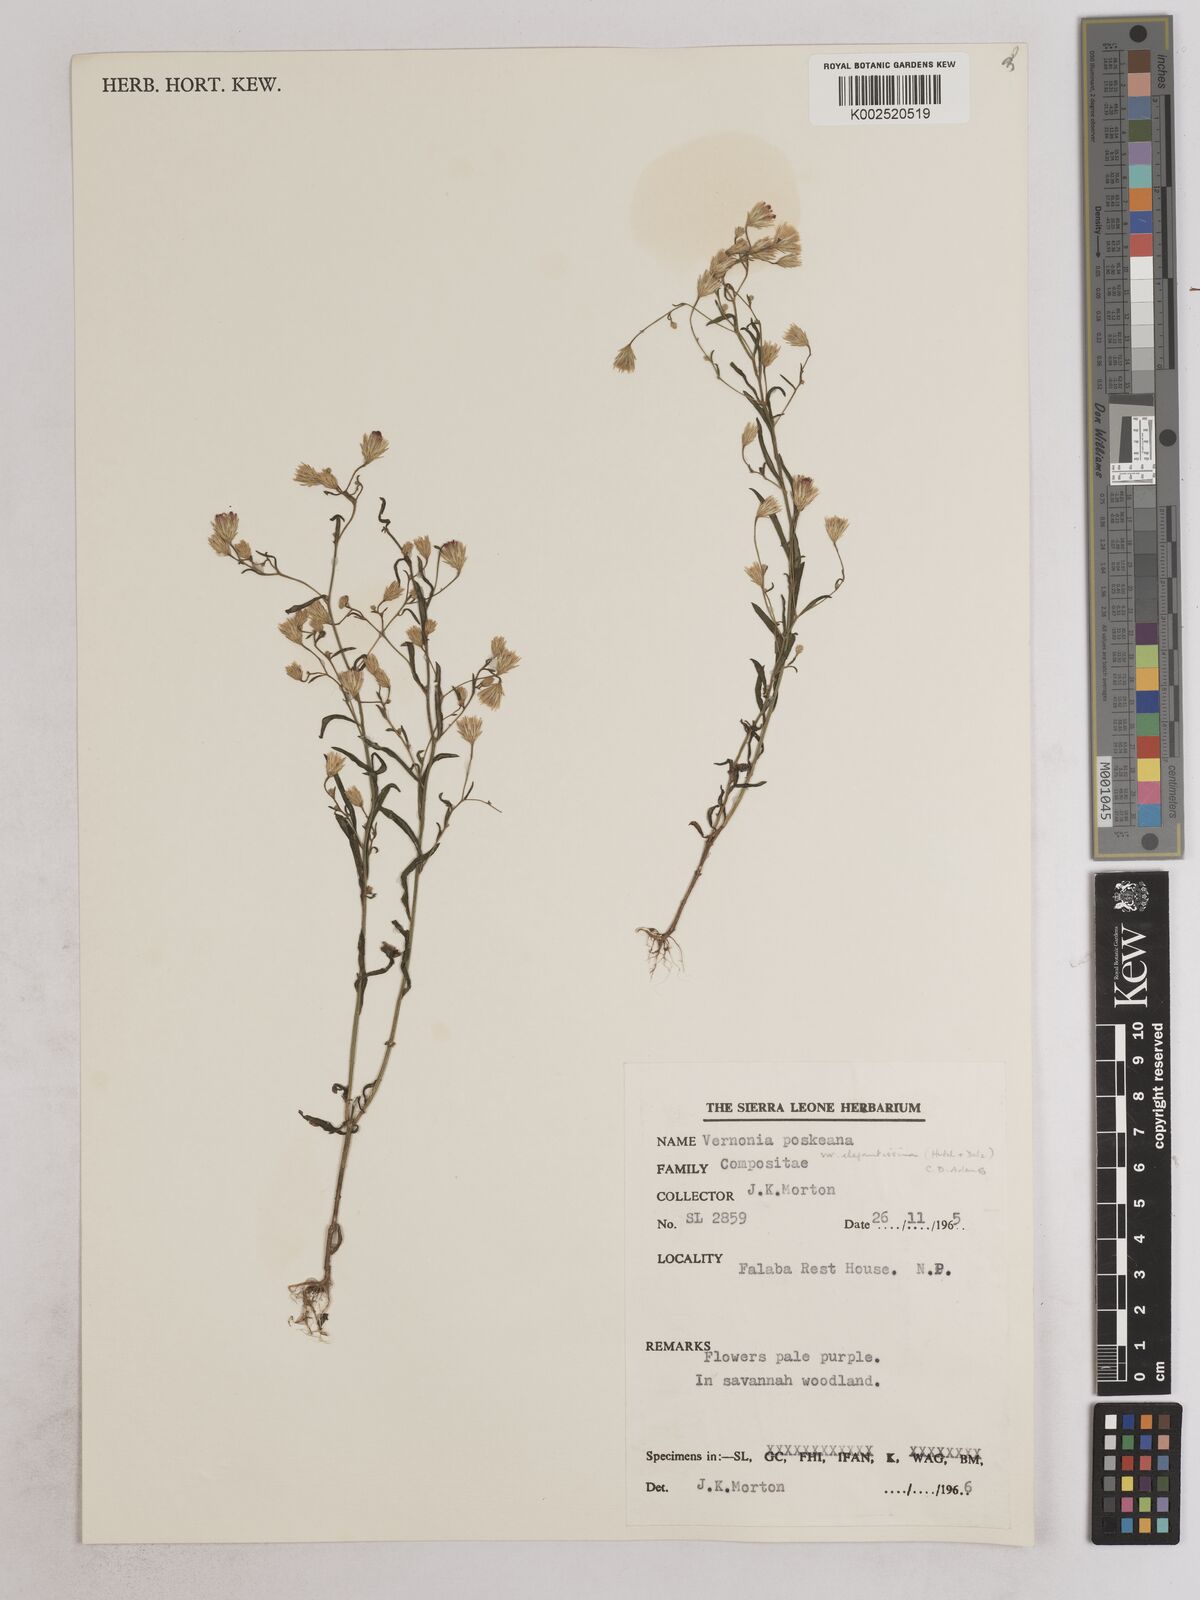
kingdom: Plantae
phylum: Tracheophyta
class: Magnoliopsida
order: Asterales
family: Asteraceae
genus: Crystallopollen
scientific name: Crystallopollen angustifolium
